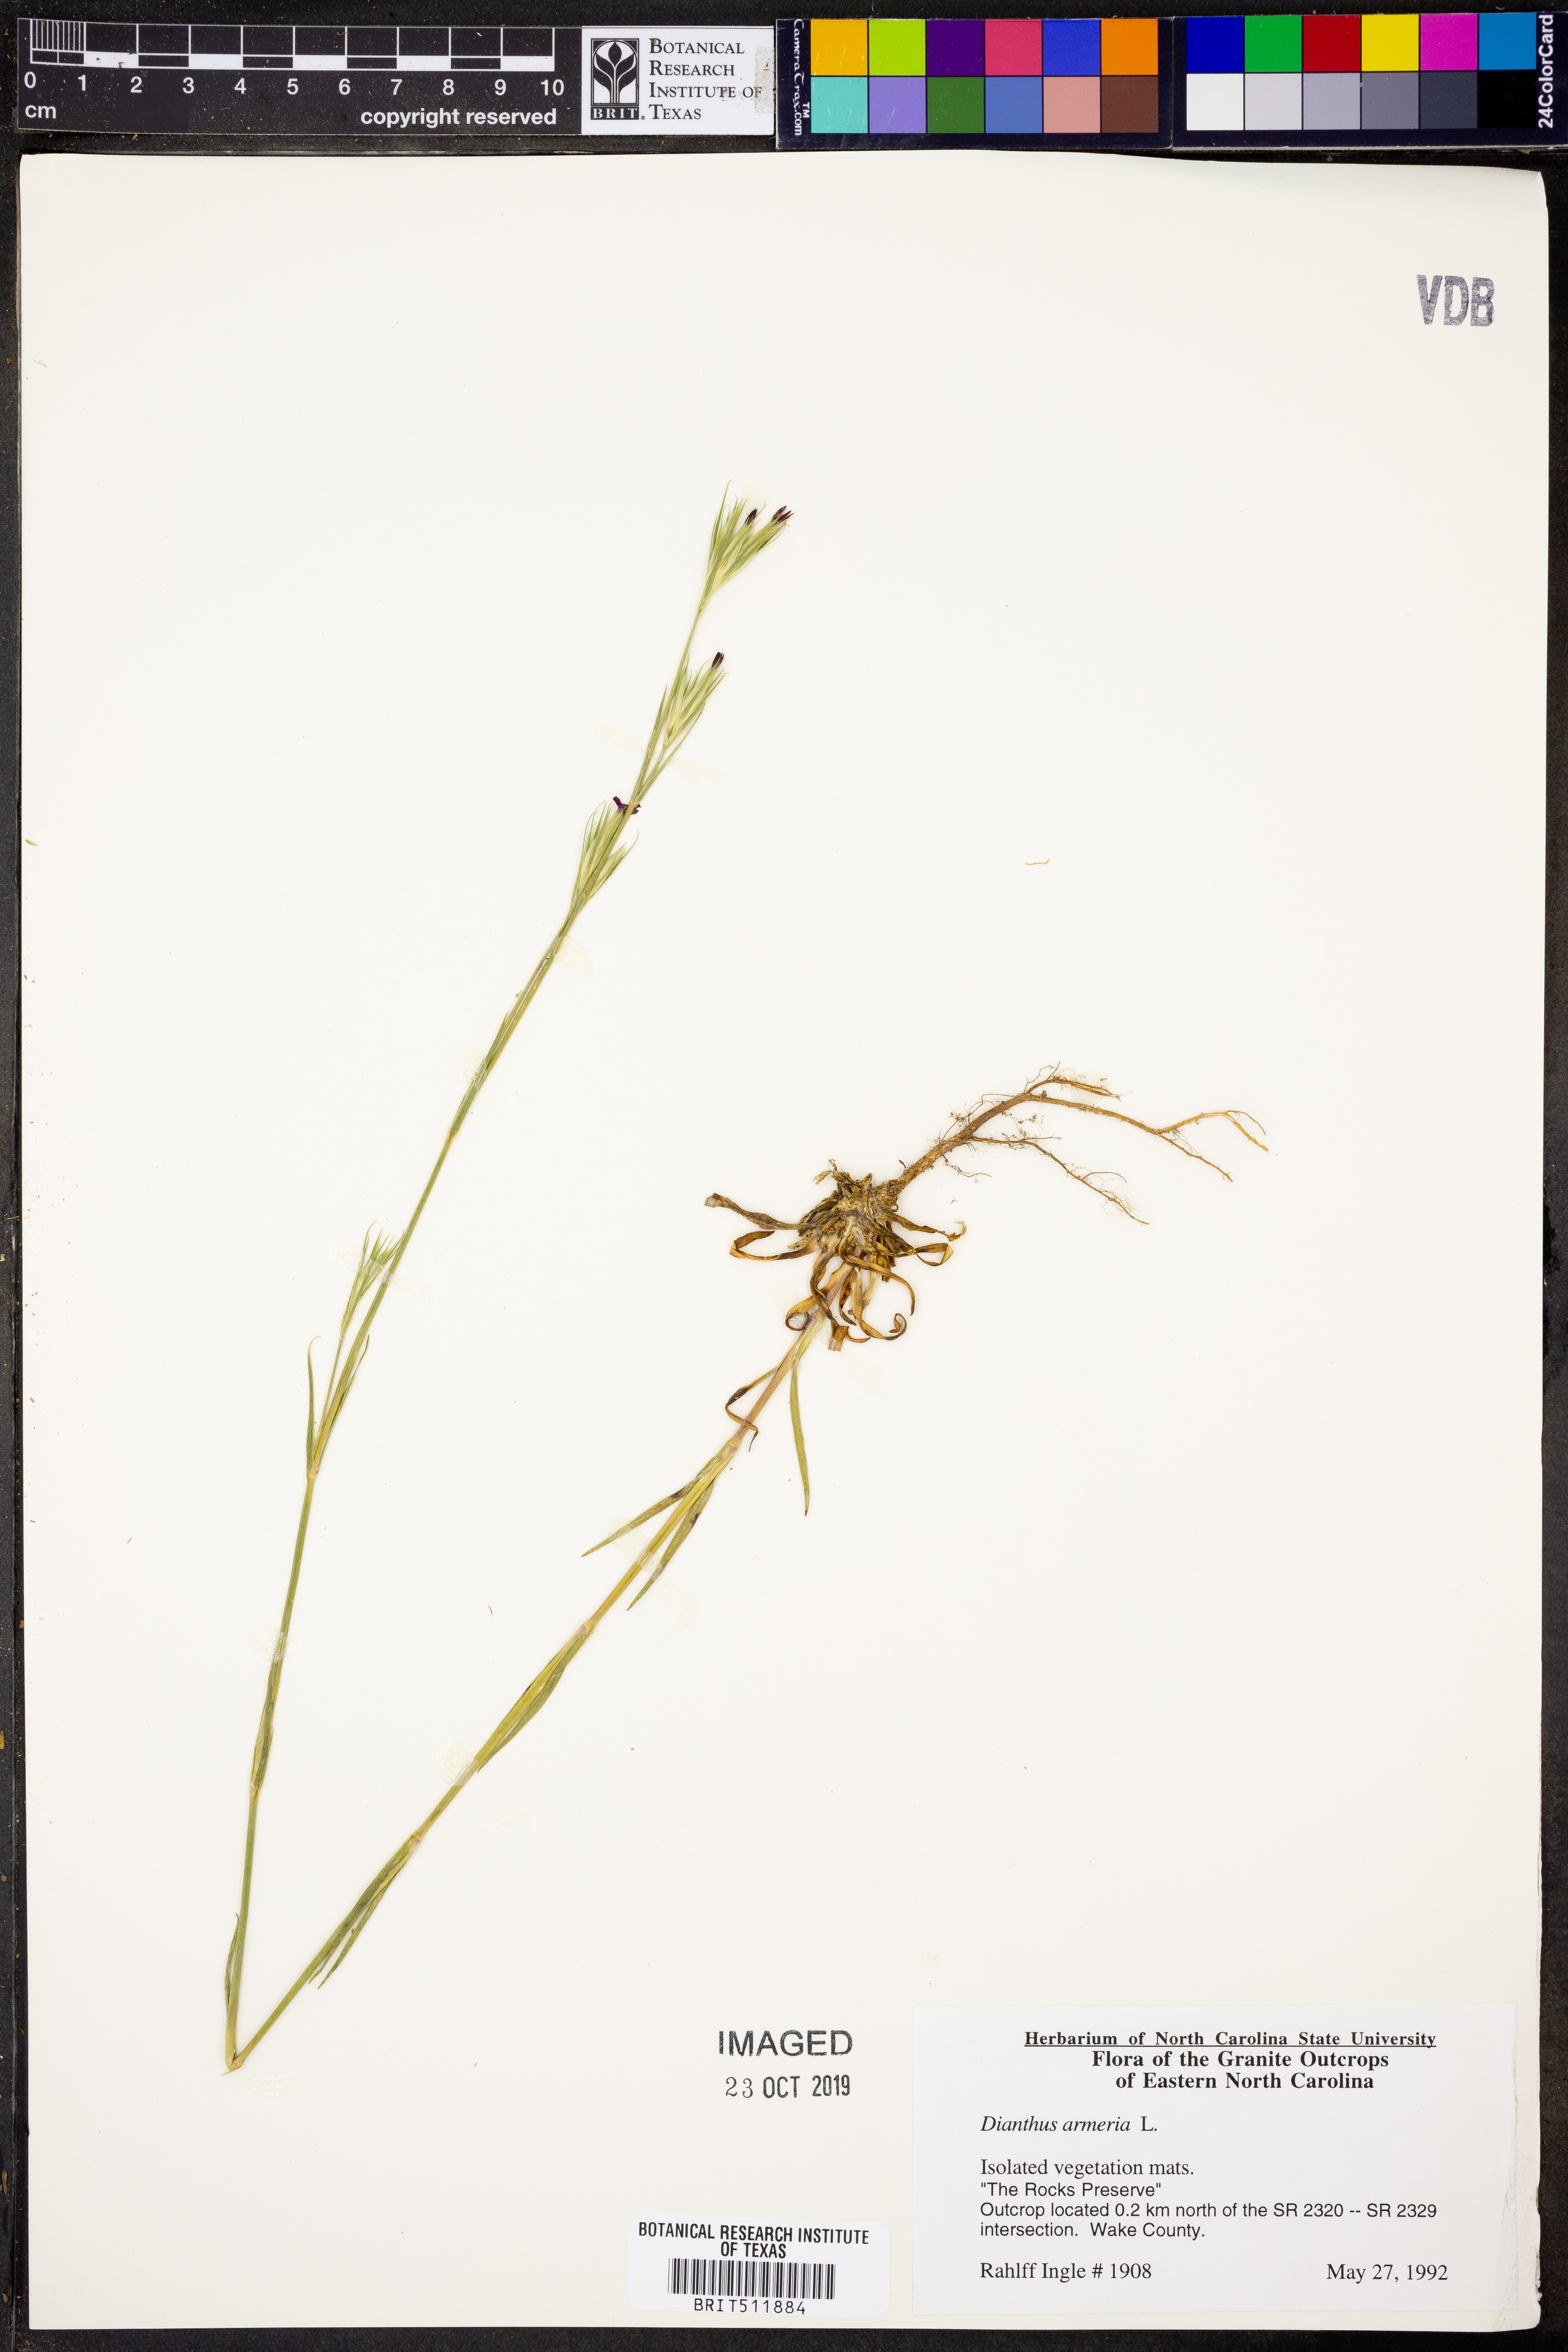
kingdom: Plantae
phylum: Tracheophyta
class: Magnoliopsida
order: Caryophyllales
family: Caryophyllaceae
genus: Dianthus
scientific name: Dianthus armeria
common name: Deptford pink
